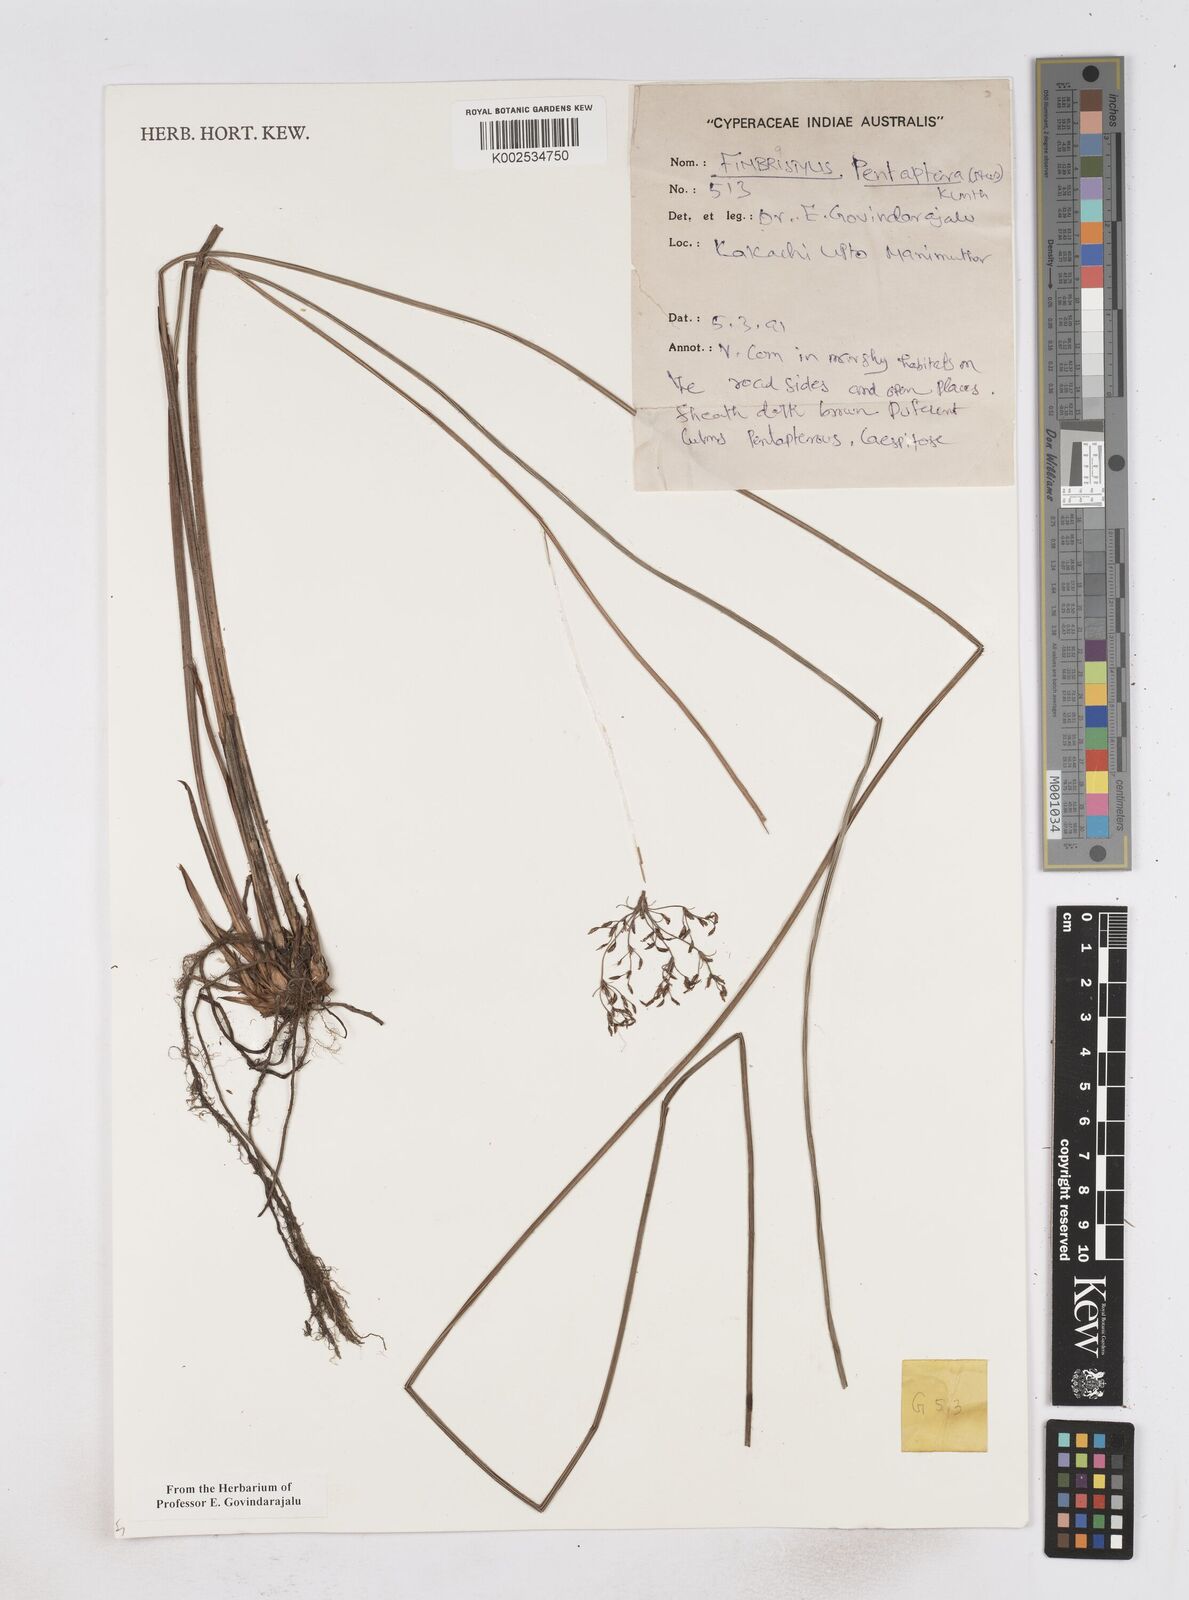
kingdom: Plantae
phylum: Tracheophyta
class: Liliopsida
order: Poales
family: Cyperaceae
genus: Fimbristylis
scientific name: Fimbristylis salbundia
